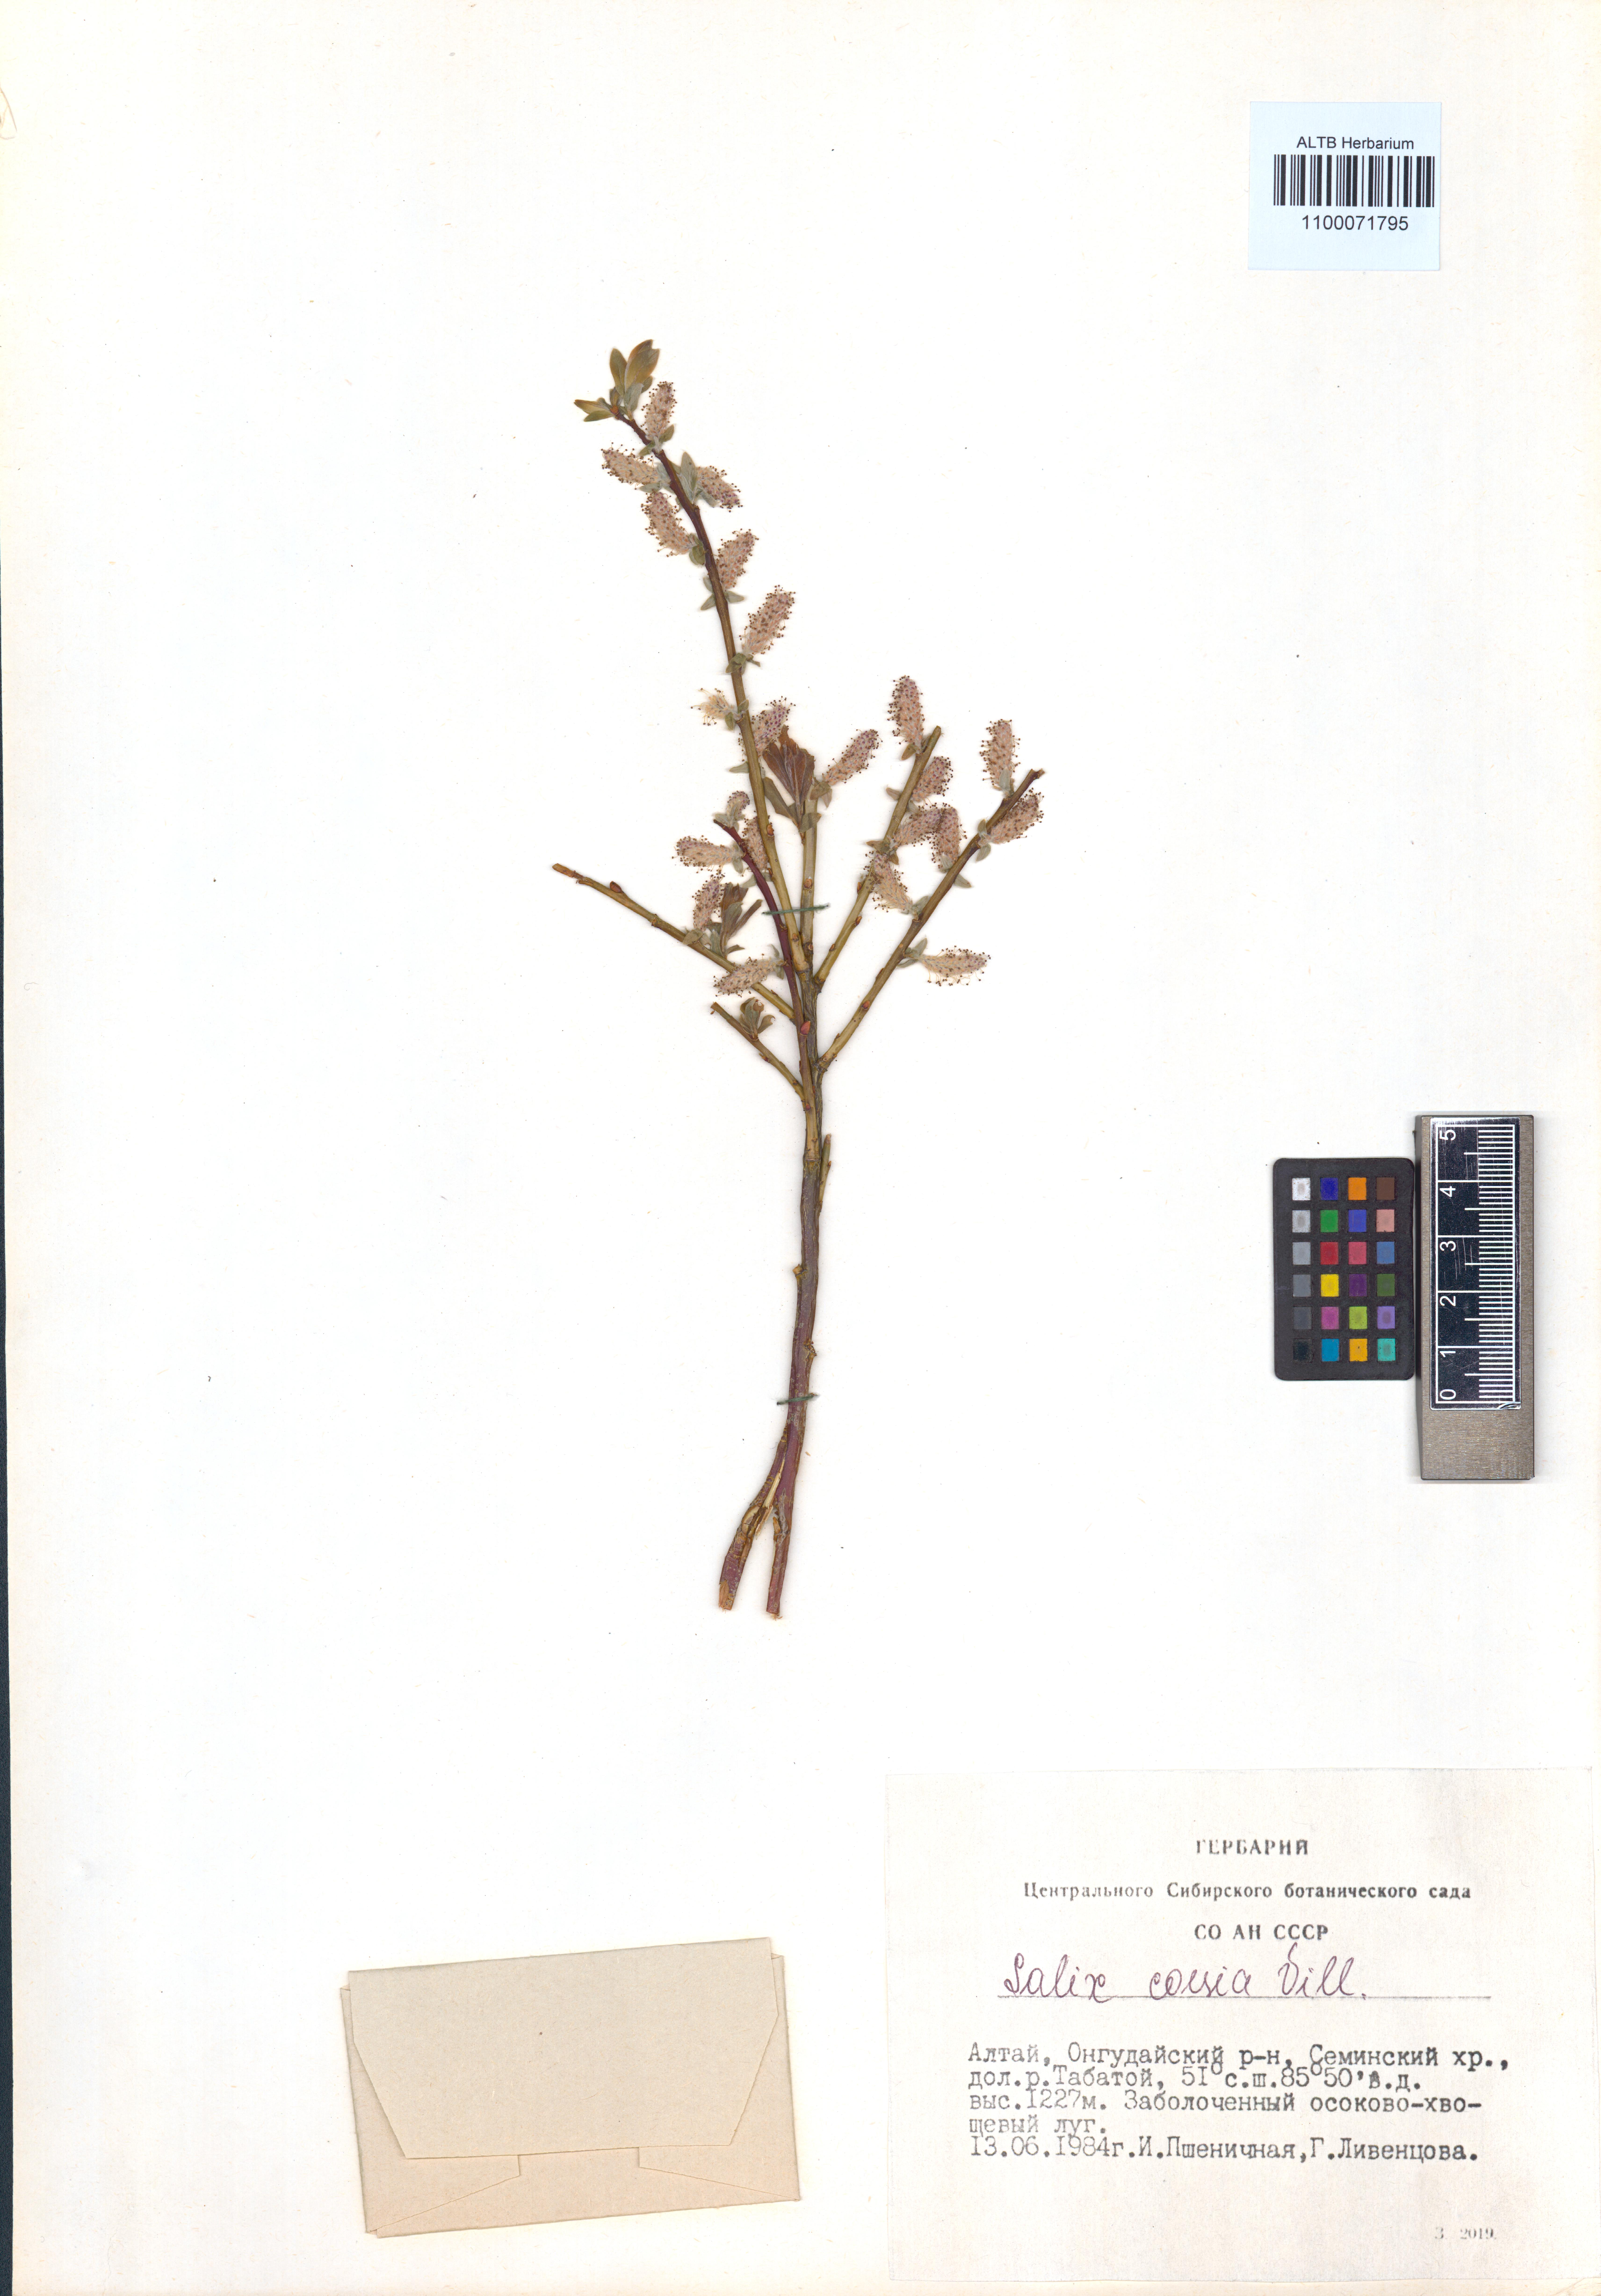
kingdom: Plantae
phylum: Tracheophyta
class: Magnoliopsida
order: Malpighiales
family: Salicaceae
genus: Salix
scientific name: Salix caesia
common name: Blue willow
